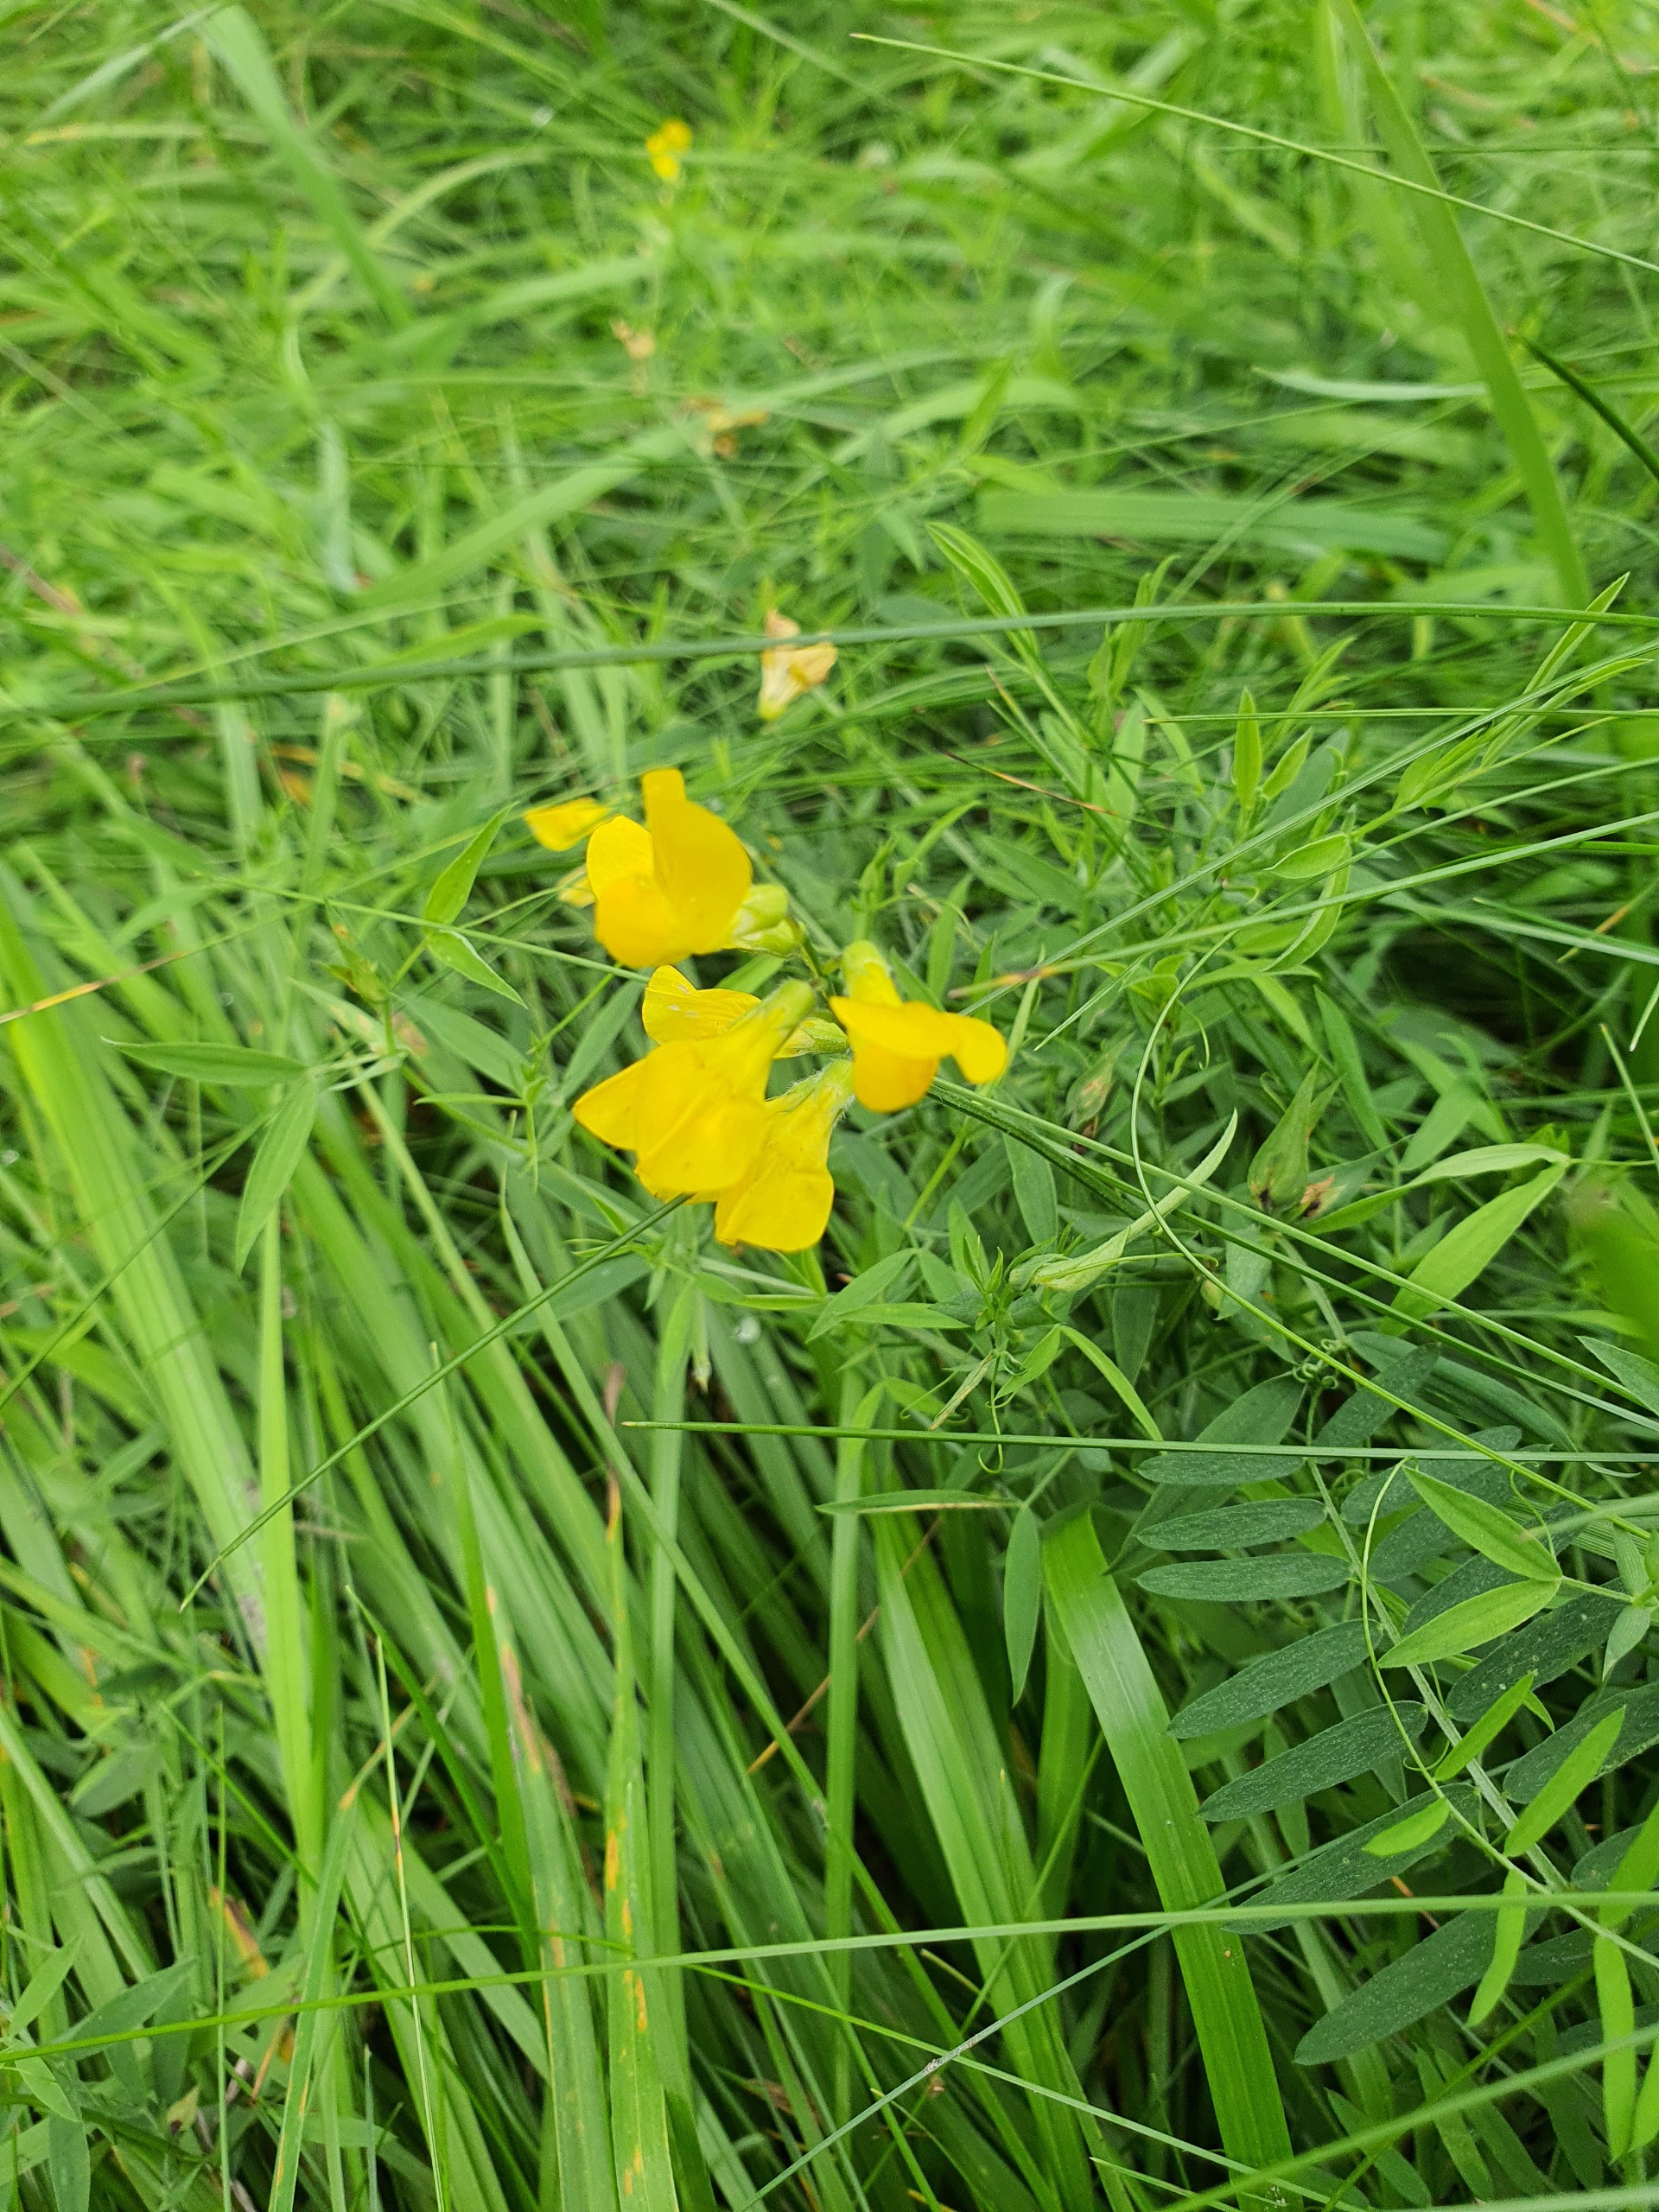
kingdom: Plantae
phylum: Tracheophyta
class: Magnoliopsida
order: Fabales
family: Fabaceae
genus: Lathyrus
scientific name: Lathyrus pratensis
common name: Gul fladbælg
